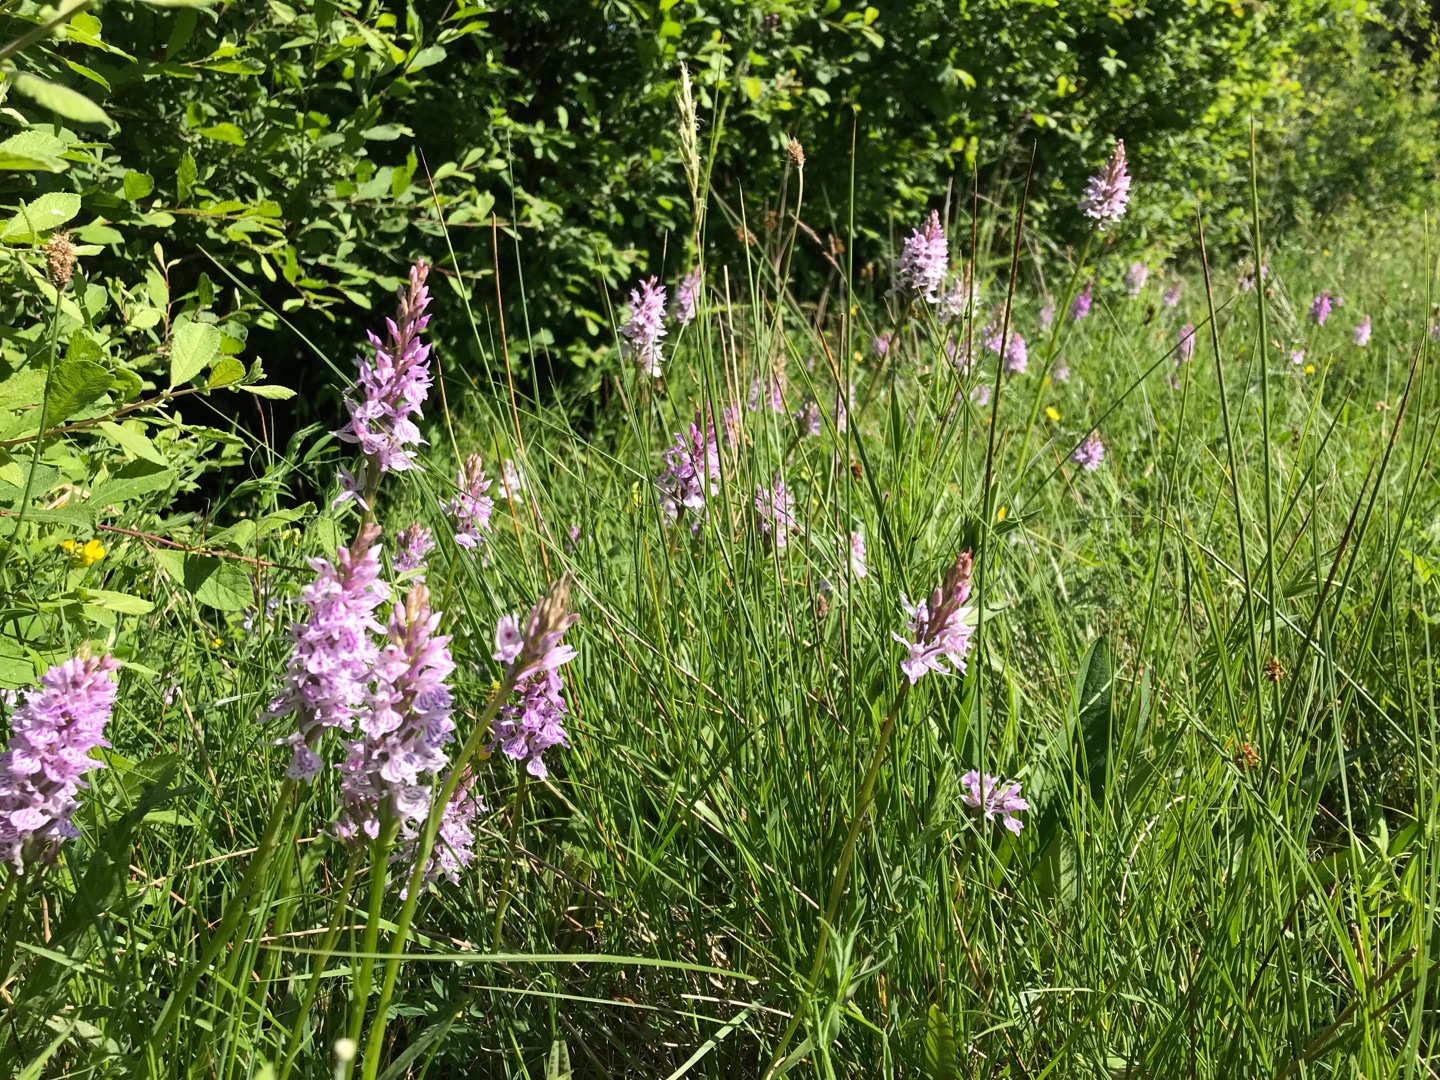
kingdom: Plantae
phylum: Tracheophyta
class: Liliopsida
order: Asparagales
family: Orchidaceae
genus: Dactylorhiza
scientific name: Dactylorhiza maculata
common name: Plettet gøgeurt
